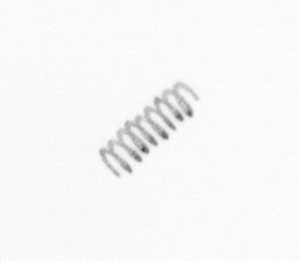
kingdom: Chromista
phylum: Ochrophyta
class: Bacillariophyceae
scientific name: Bacillariophyceae
